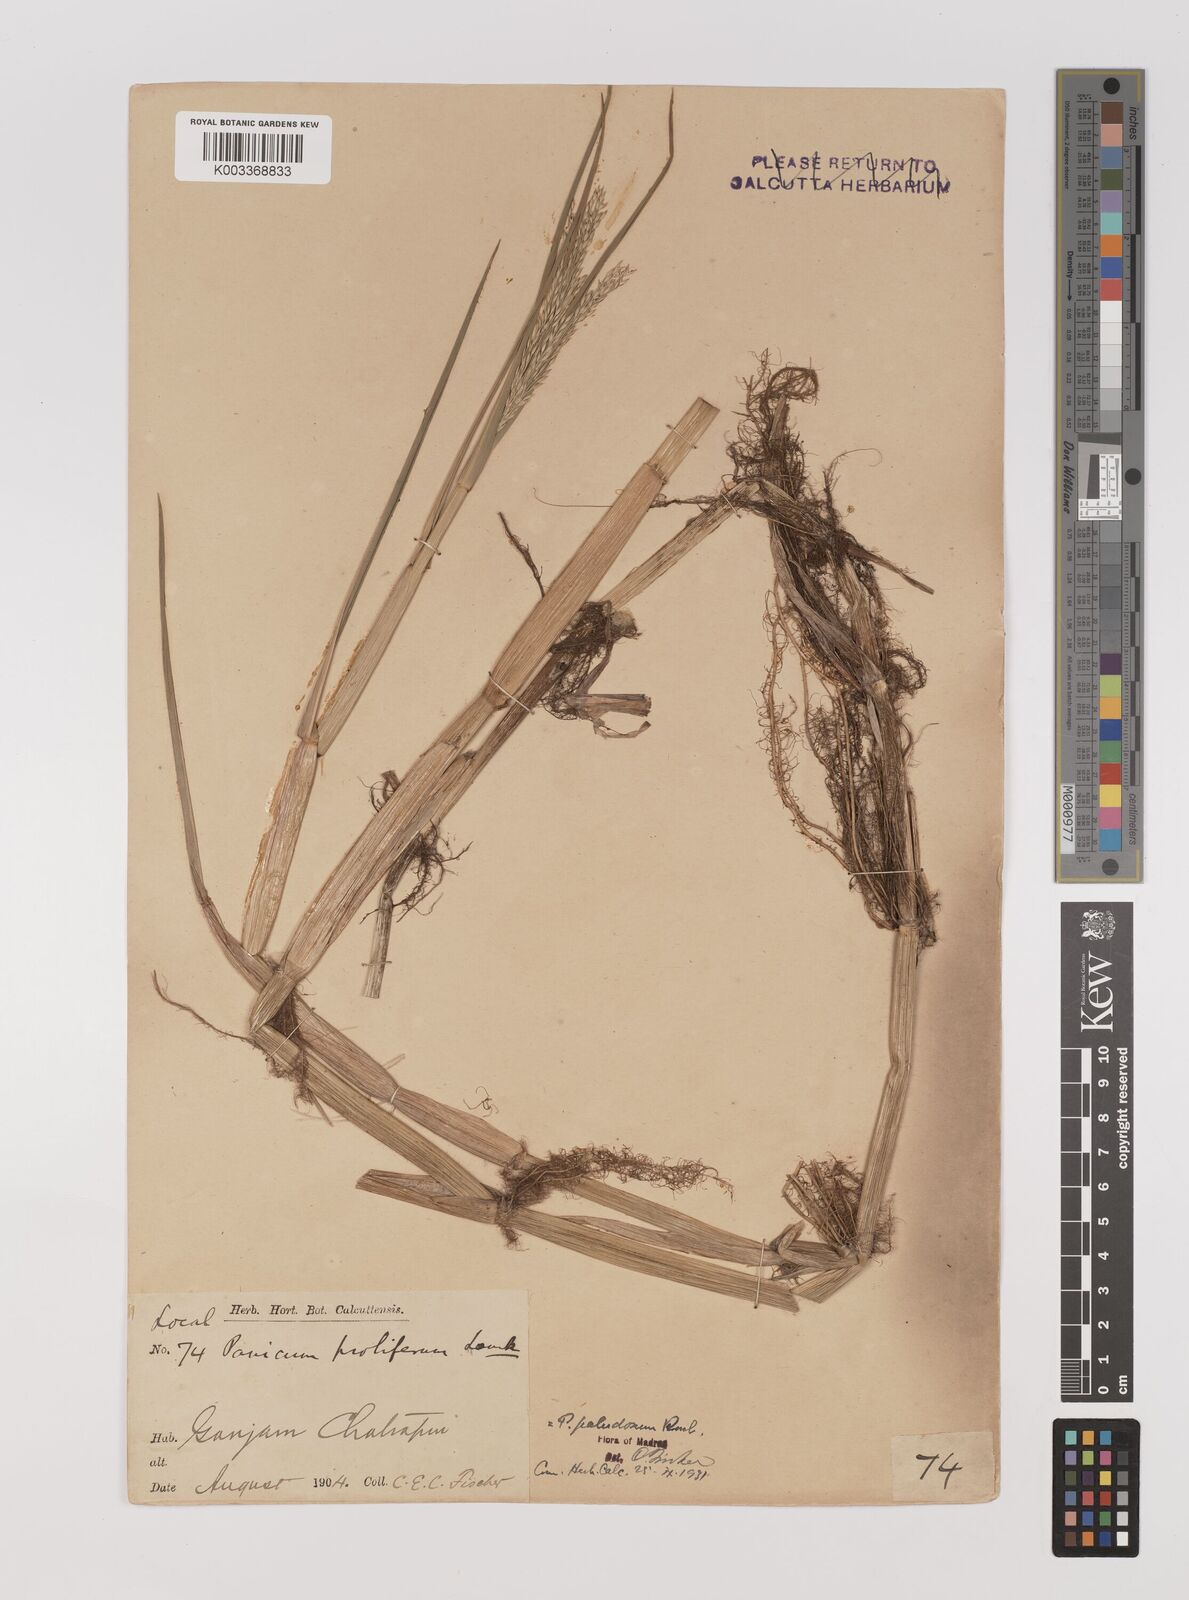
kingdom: Plantae
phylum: Tracheophyta
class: Liliopsida
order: Poales
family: Poaceae
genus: Louisiella
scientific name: Louisiella paludosa
